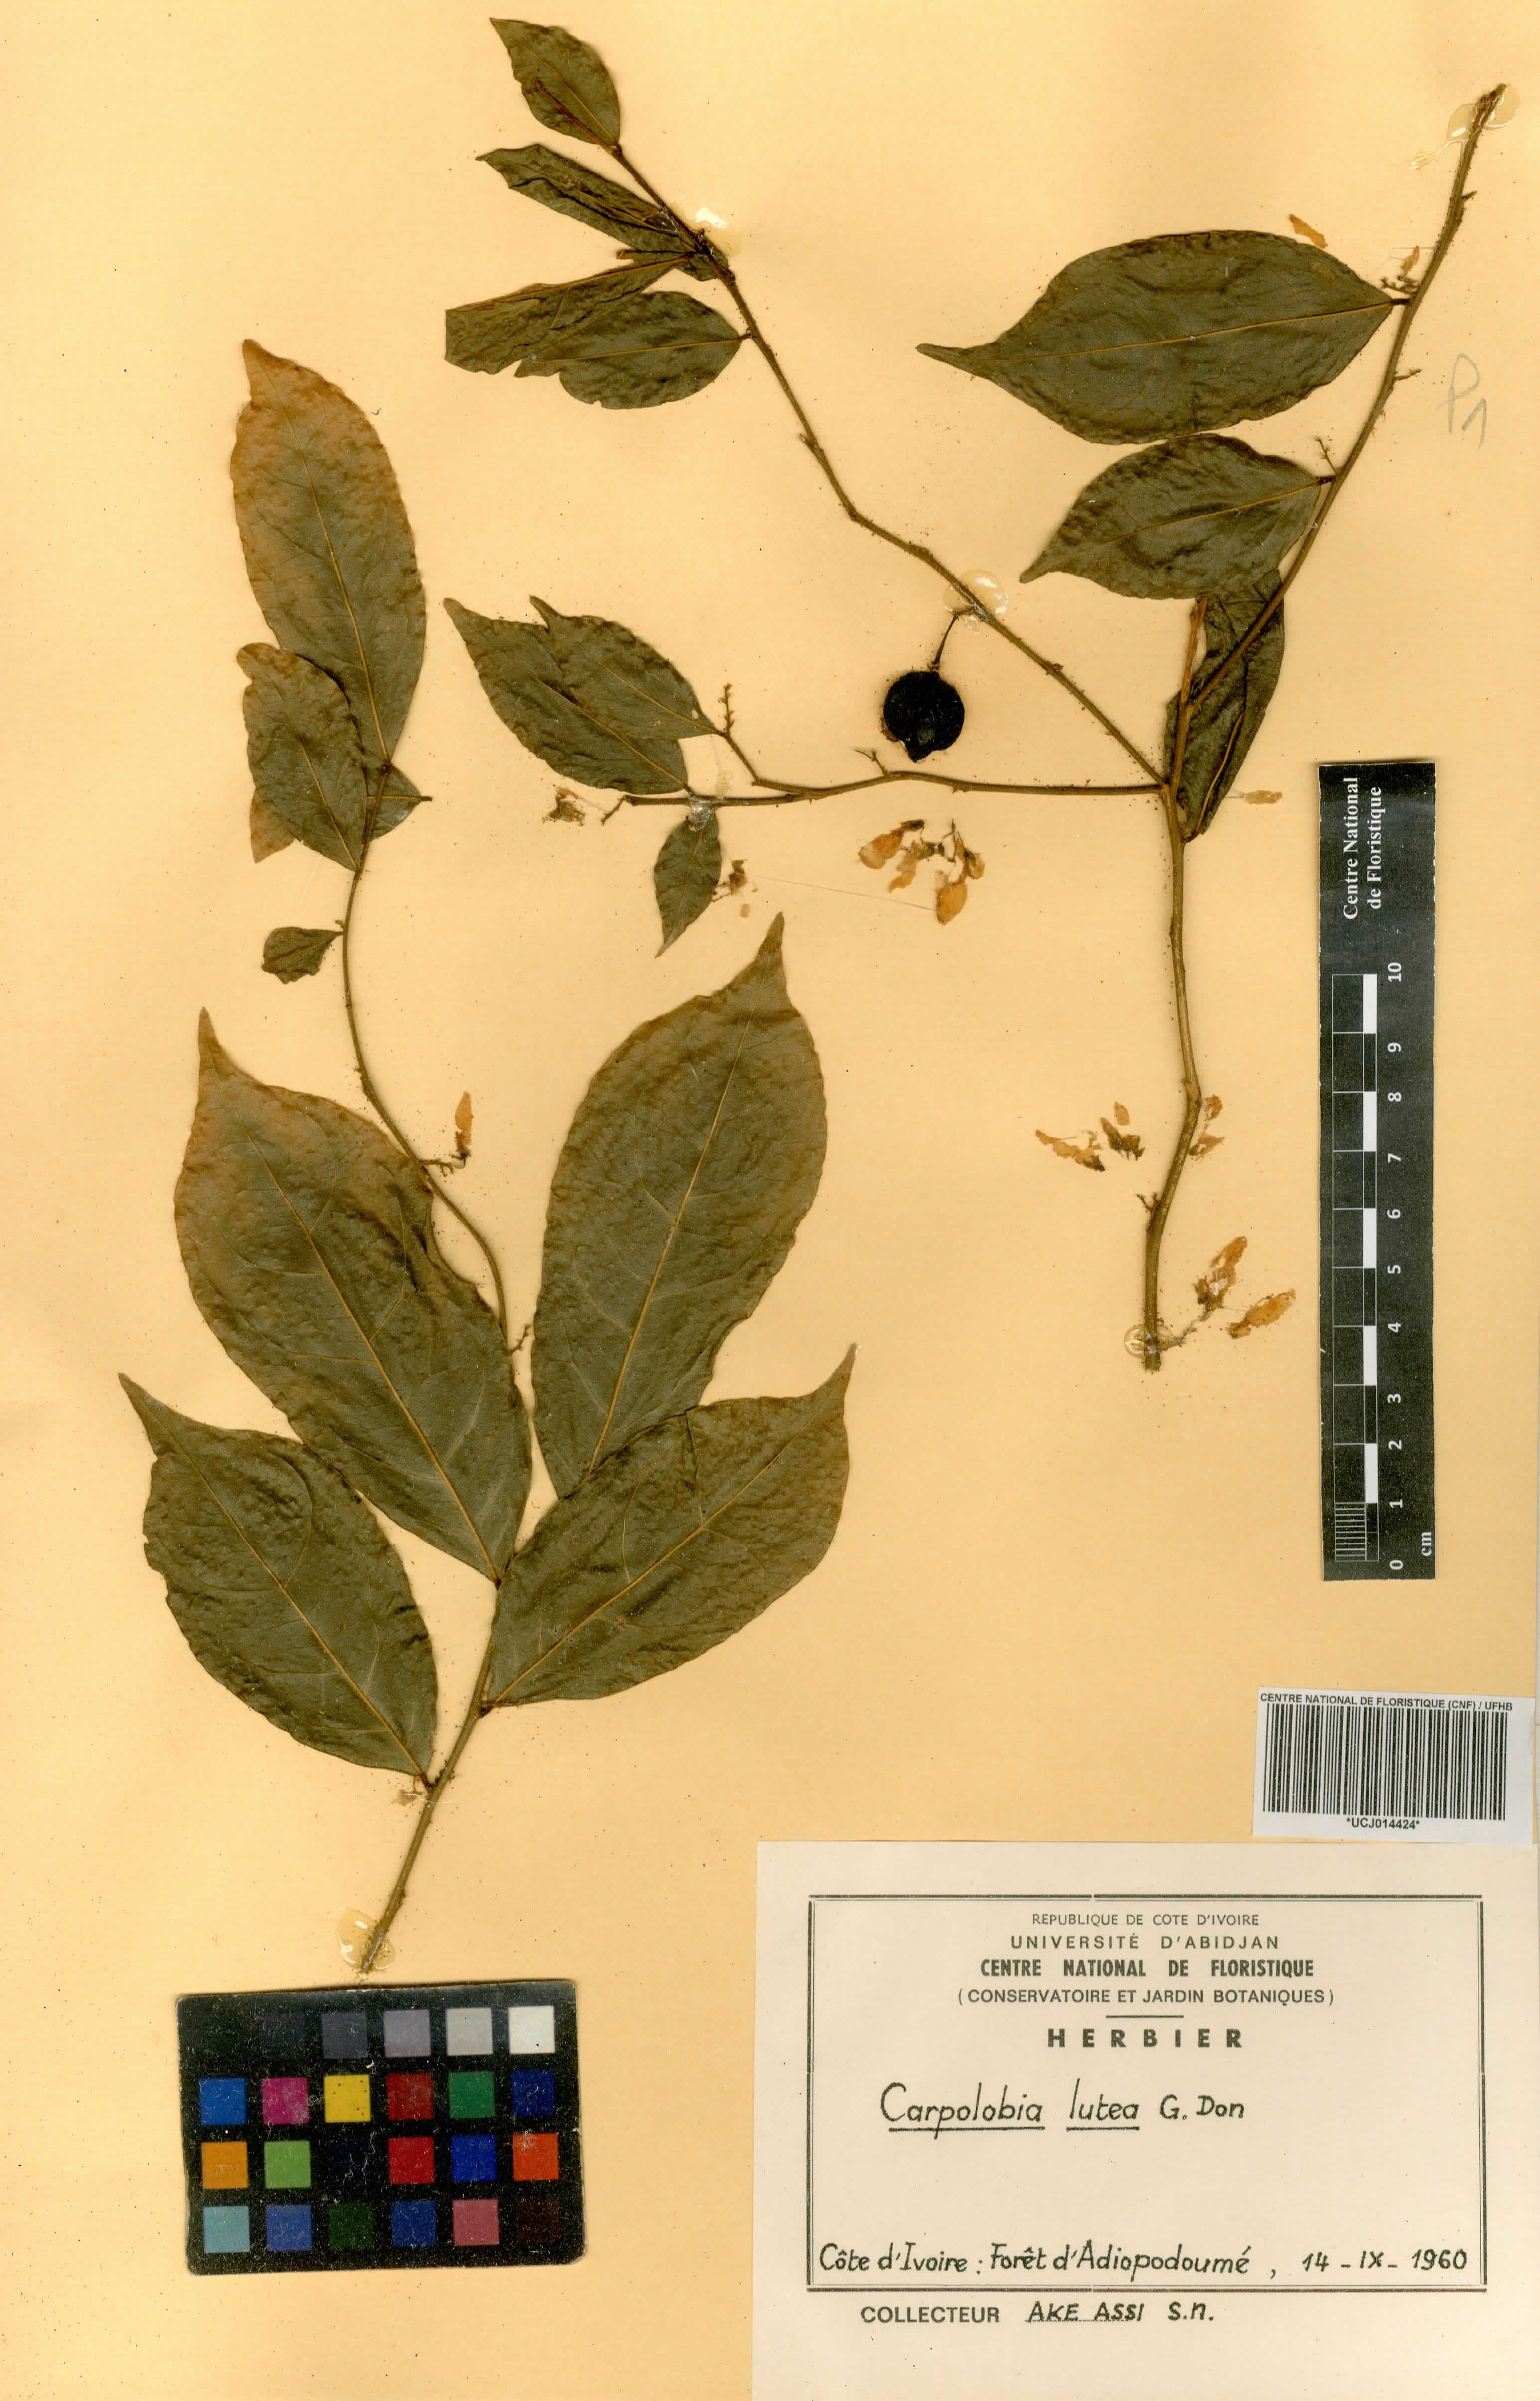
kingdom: Plantae
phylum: Tracheophyta
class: Magnoliopsida
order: Fabales
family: Polygalaceae
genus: Carpolobia
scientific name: Carpolobia lutea
